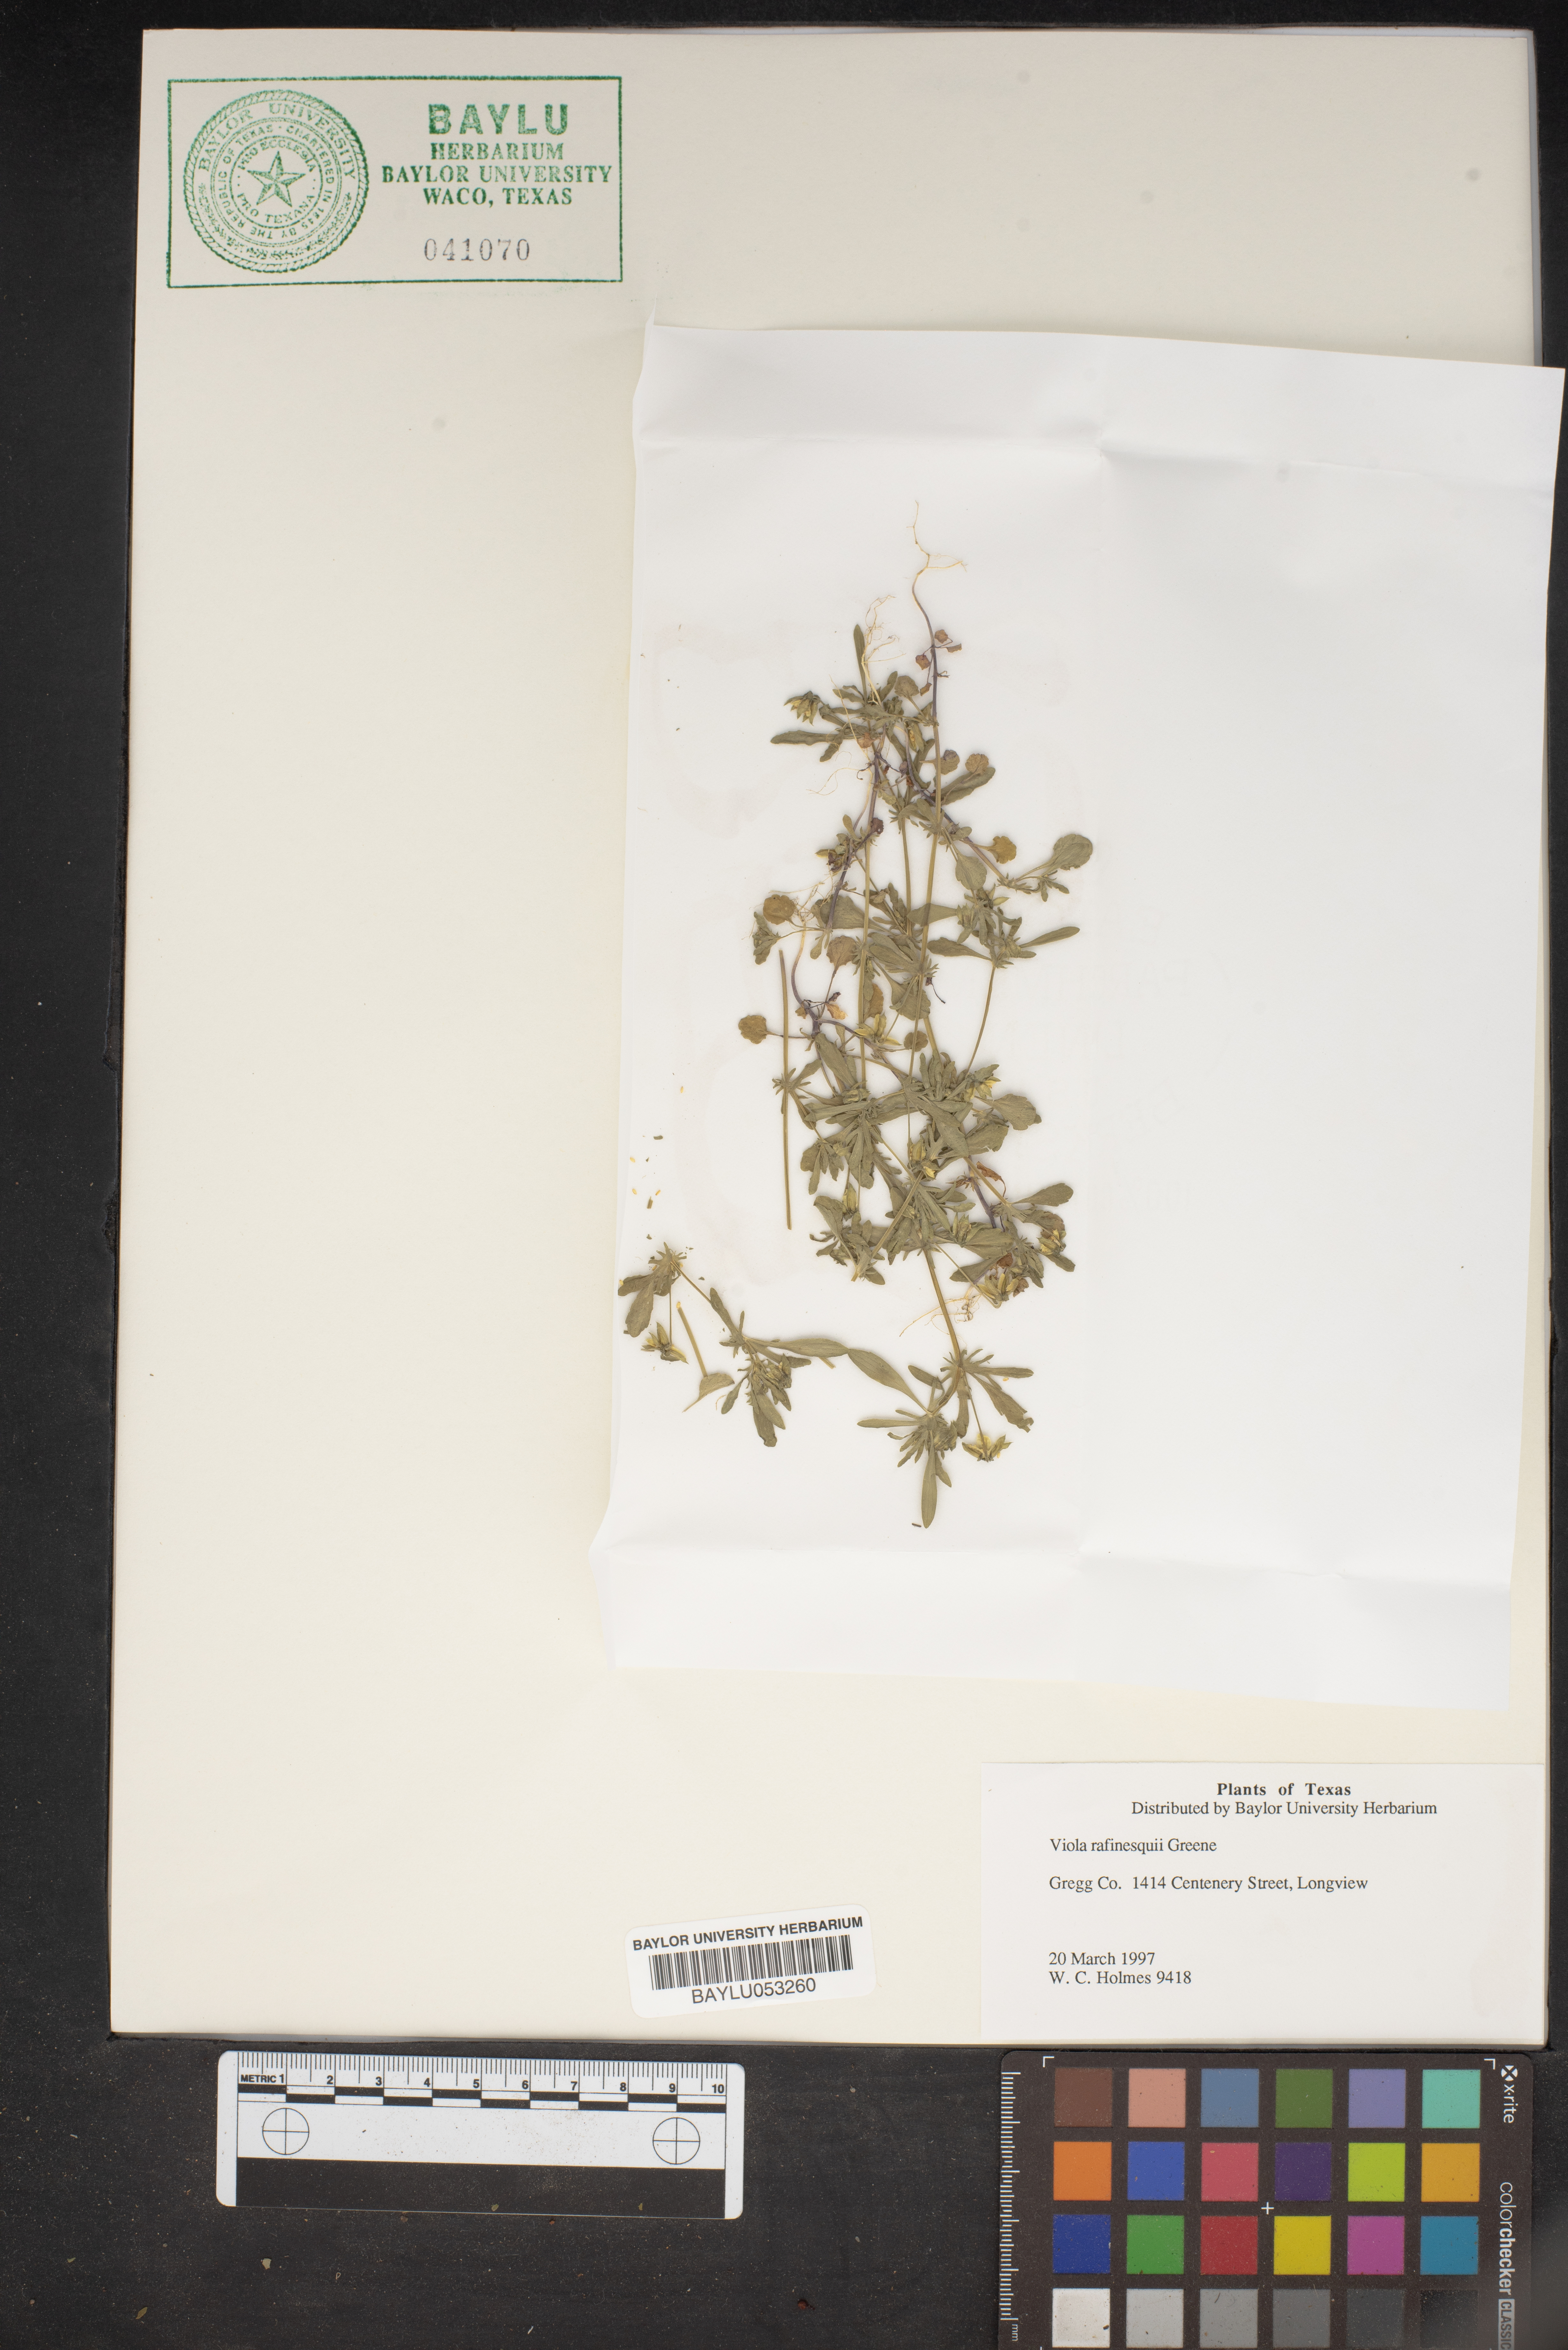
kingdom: Plantae
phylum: Tracheophyta
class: Magnoliopsida
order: Malpighiales
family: Violaceae
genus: Viola
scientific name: Viola rafinesquei
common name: American field pansy
